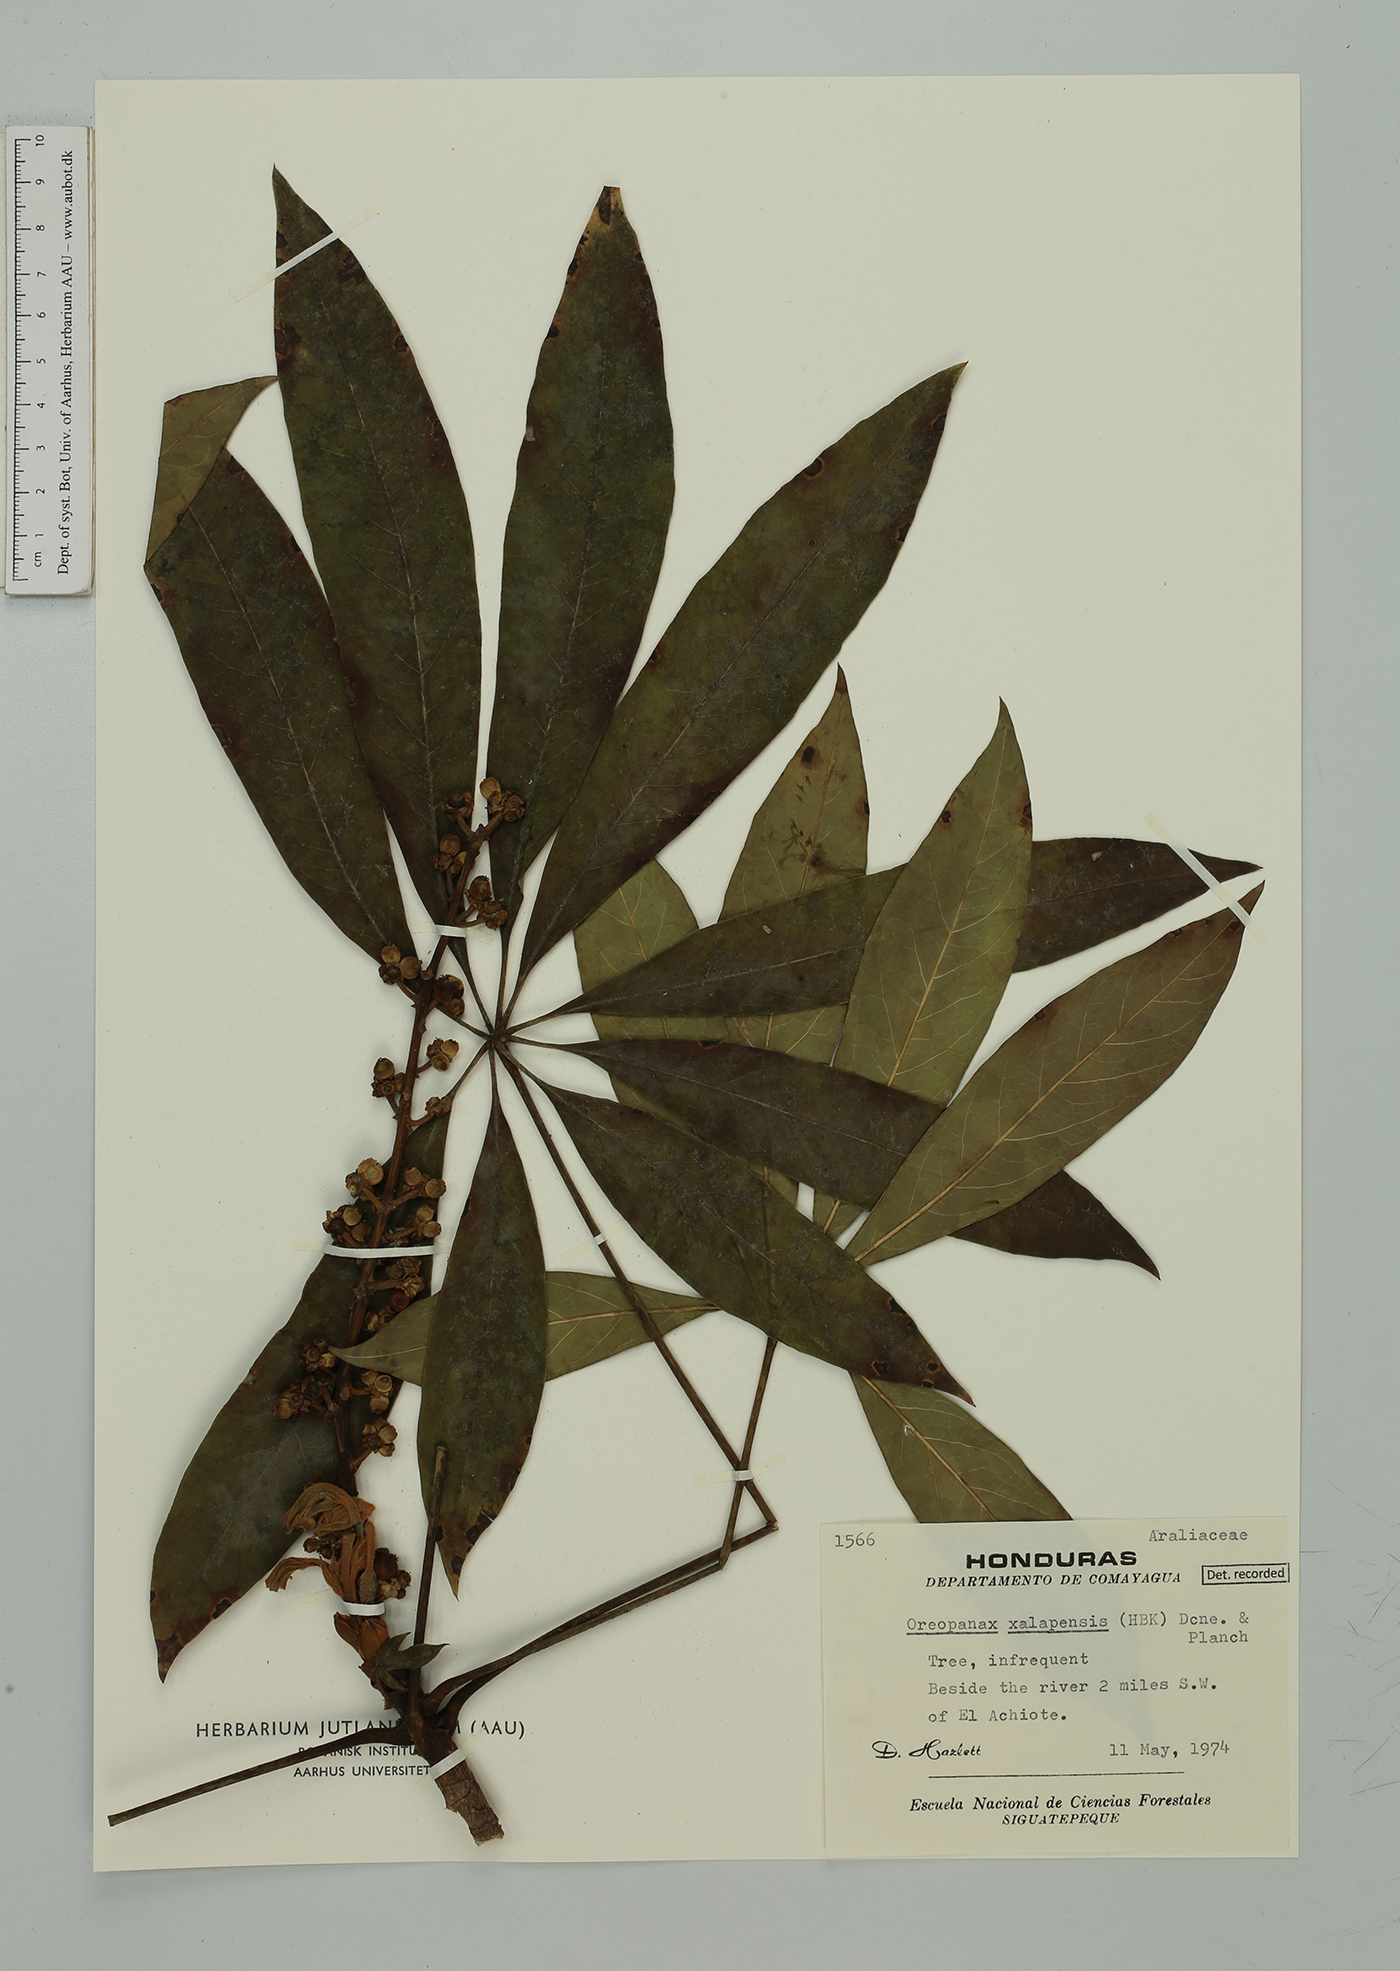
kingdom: Plantae
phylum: Tracheophyta
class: Magnoliopsida
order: Apiales
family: Araliaceae
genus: Oreopanax
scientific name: Oreopanax xalapensis
